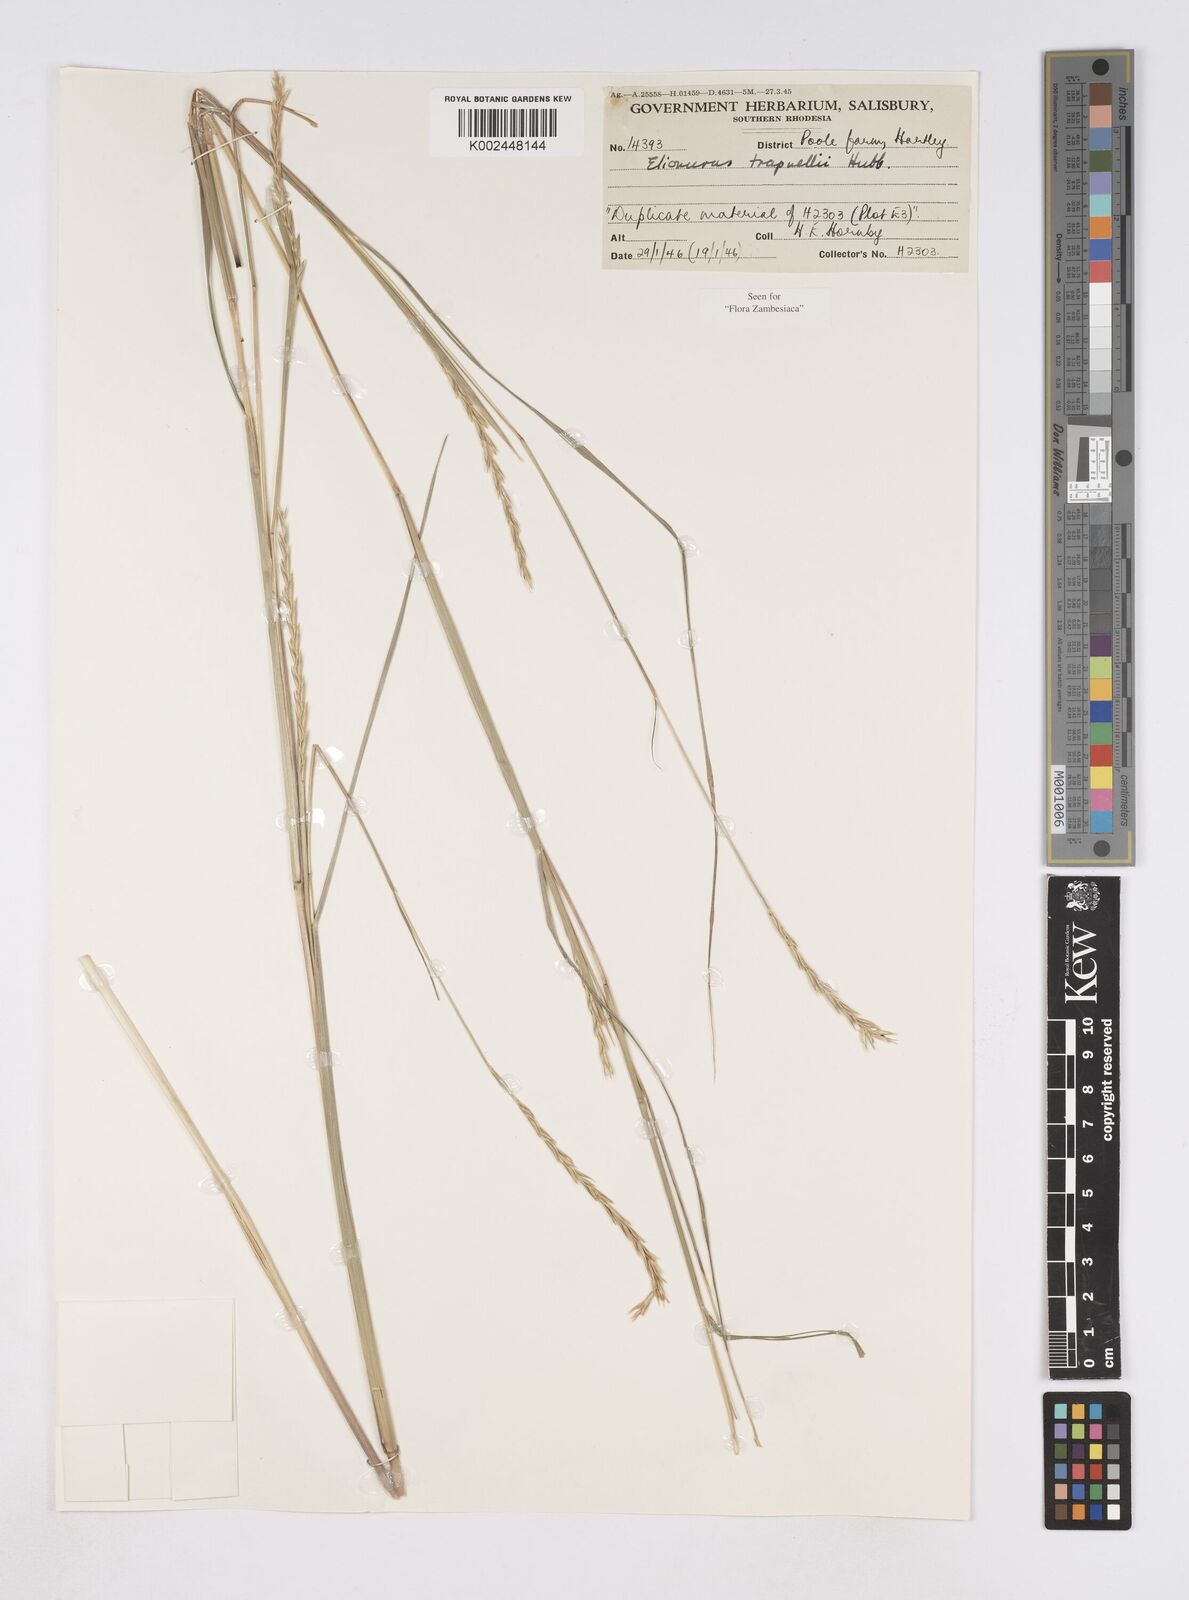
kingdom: Plantae
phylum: Tracheophyta
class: Liliopsida
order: Poales
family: Poaceae
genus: Elionurus
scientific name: Elionurus tripsacoides
